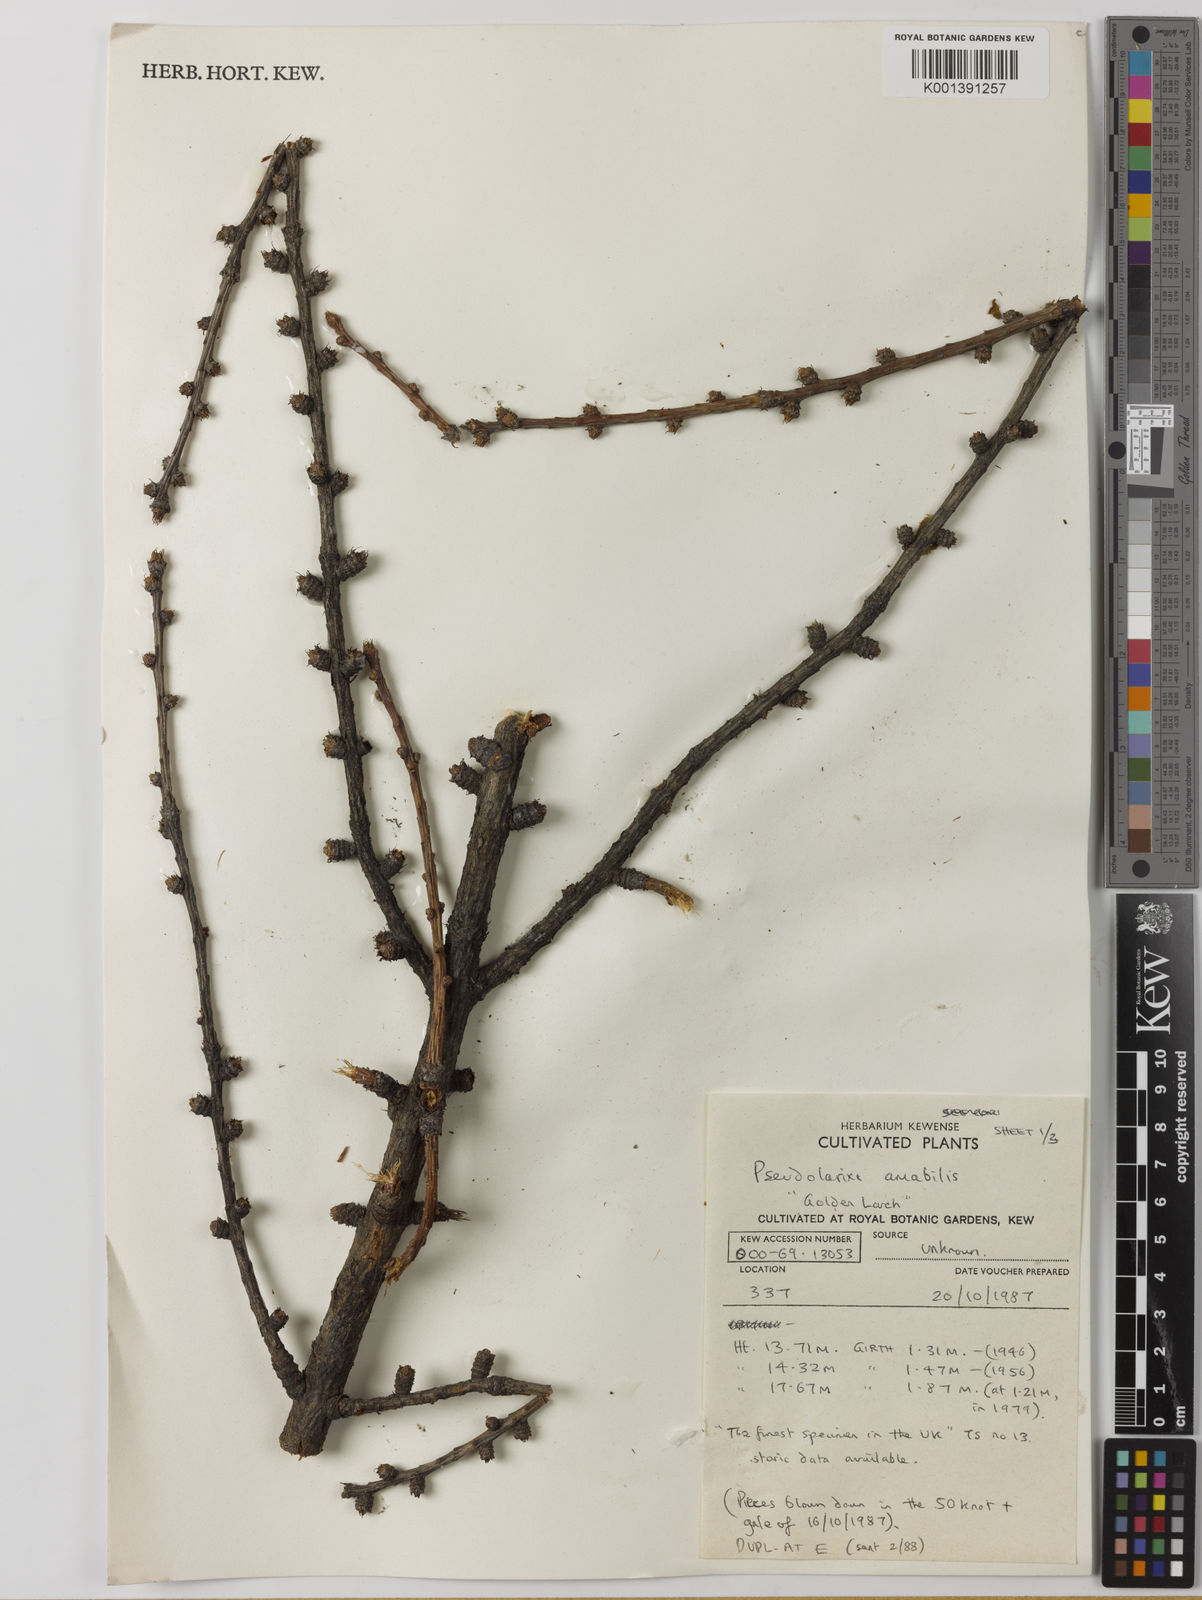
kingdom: Plantae
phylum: Tracheophyta
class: Pinopsida
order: Pinales
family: Pinaceae
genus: Pseudolarix
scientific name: Pseudolarix amabilis
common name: Chinese golden larch
